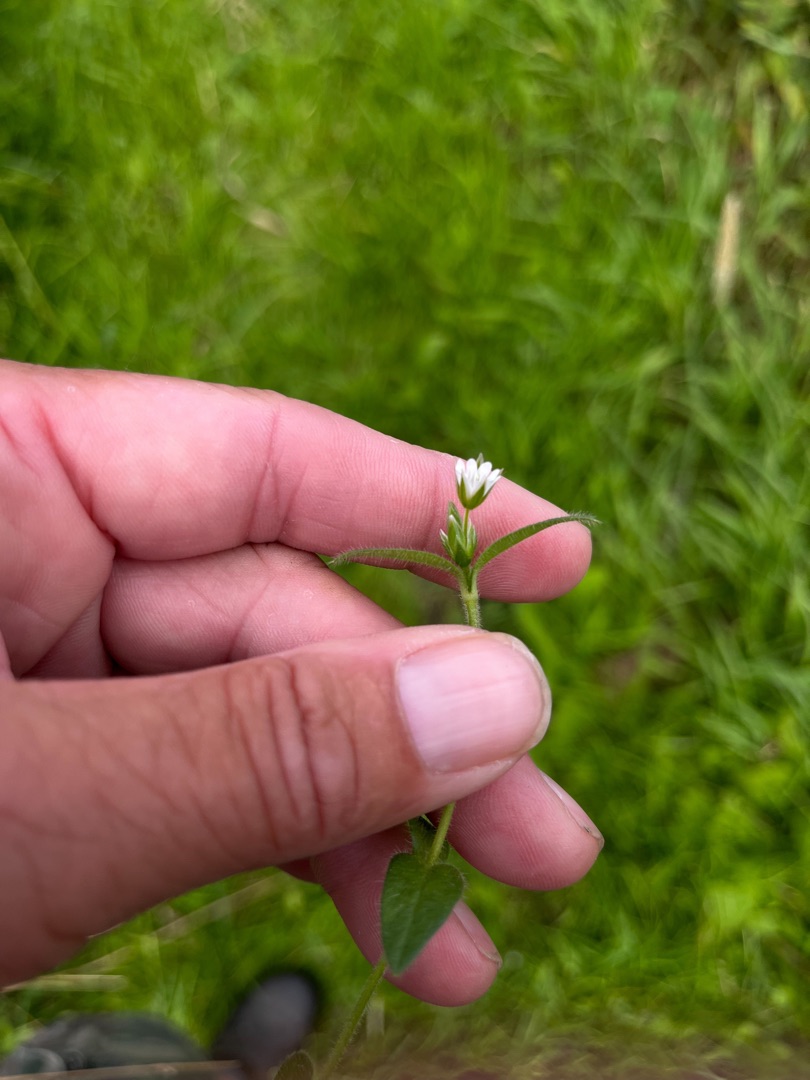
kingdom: Plantae
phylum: Tracheophyta
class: Magnoliopsida
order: Caryophyllales
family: Caryophyllaceae
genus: Cerastium
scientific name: Cerastium fontanum
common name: Almindelig hønsetarm
